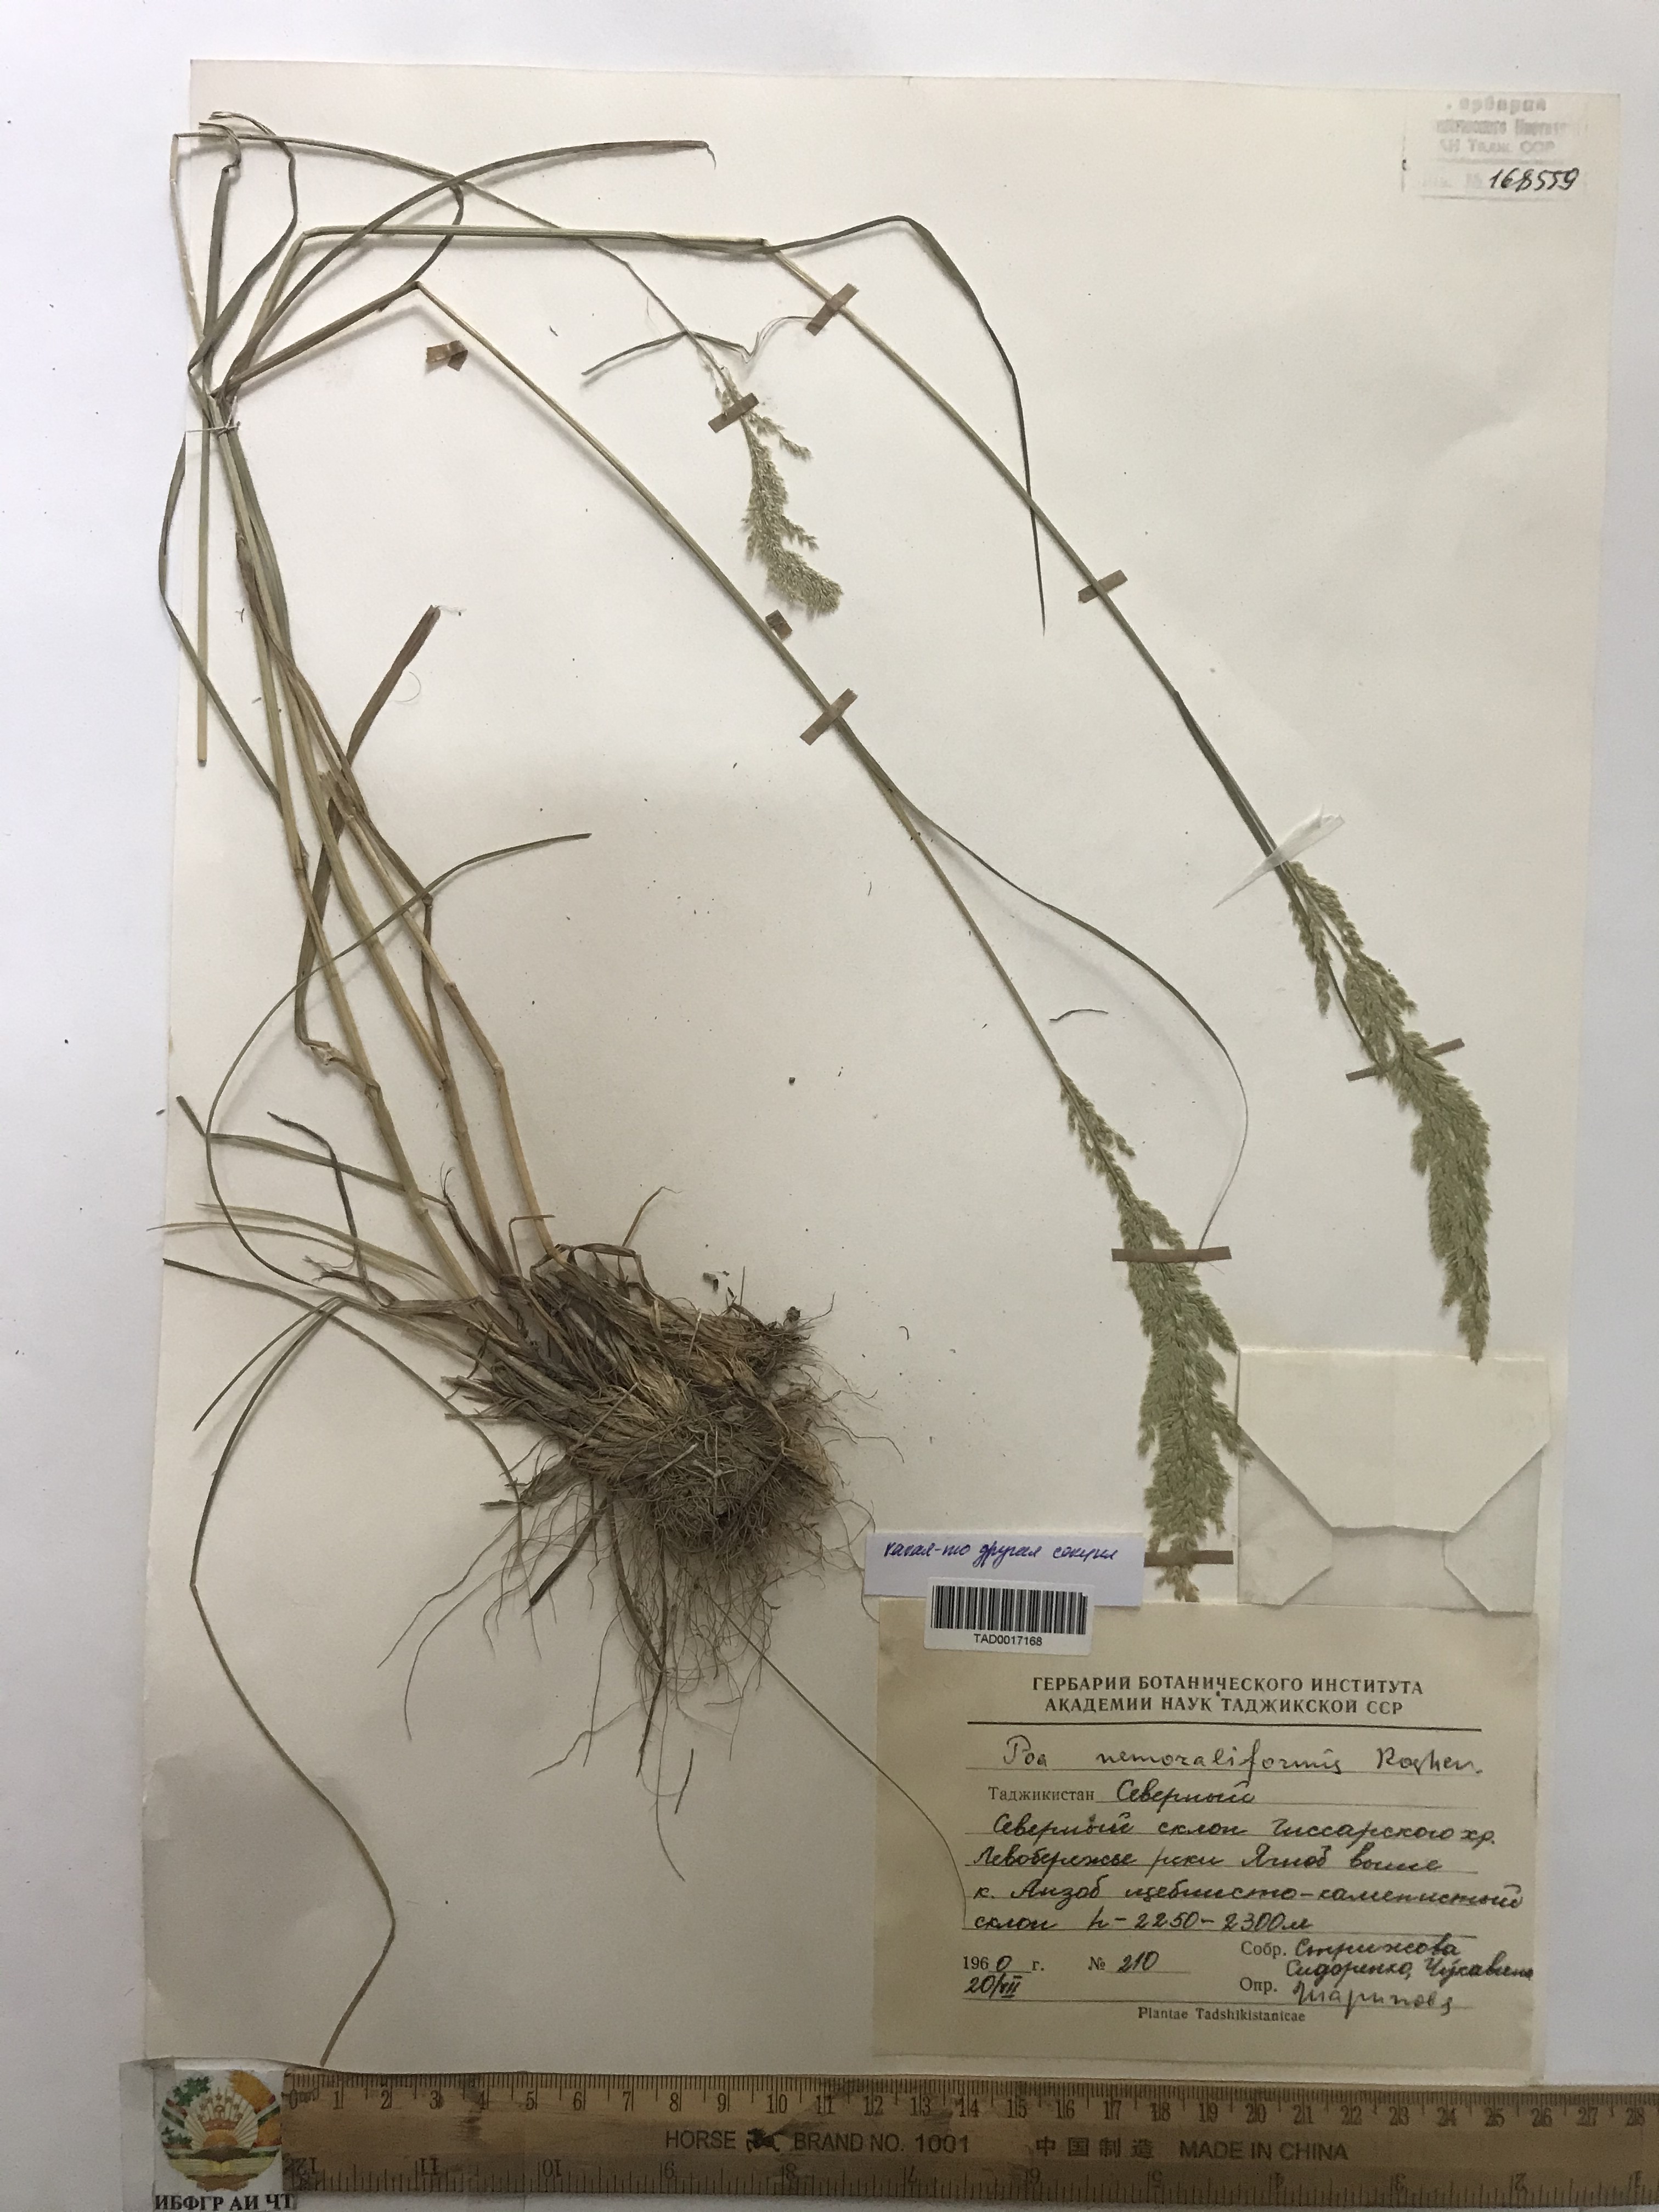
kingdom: Plantae
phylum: Tracheophyta
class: Liliopsida
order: Poales
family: Poaceae
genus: Poa
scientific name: Poa urssulensis
